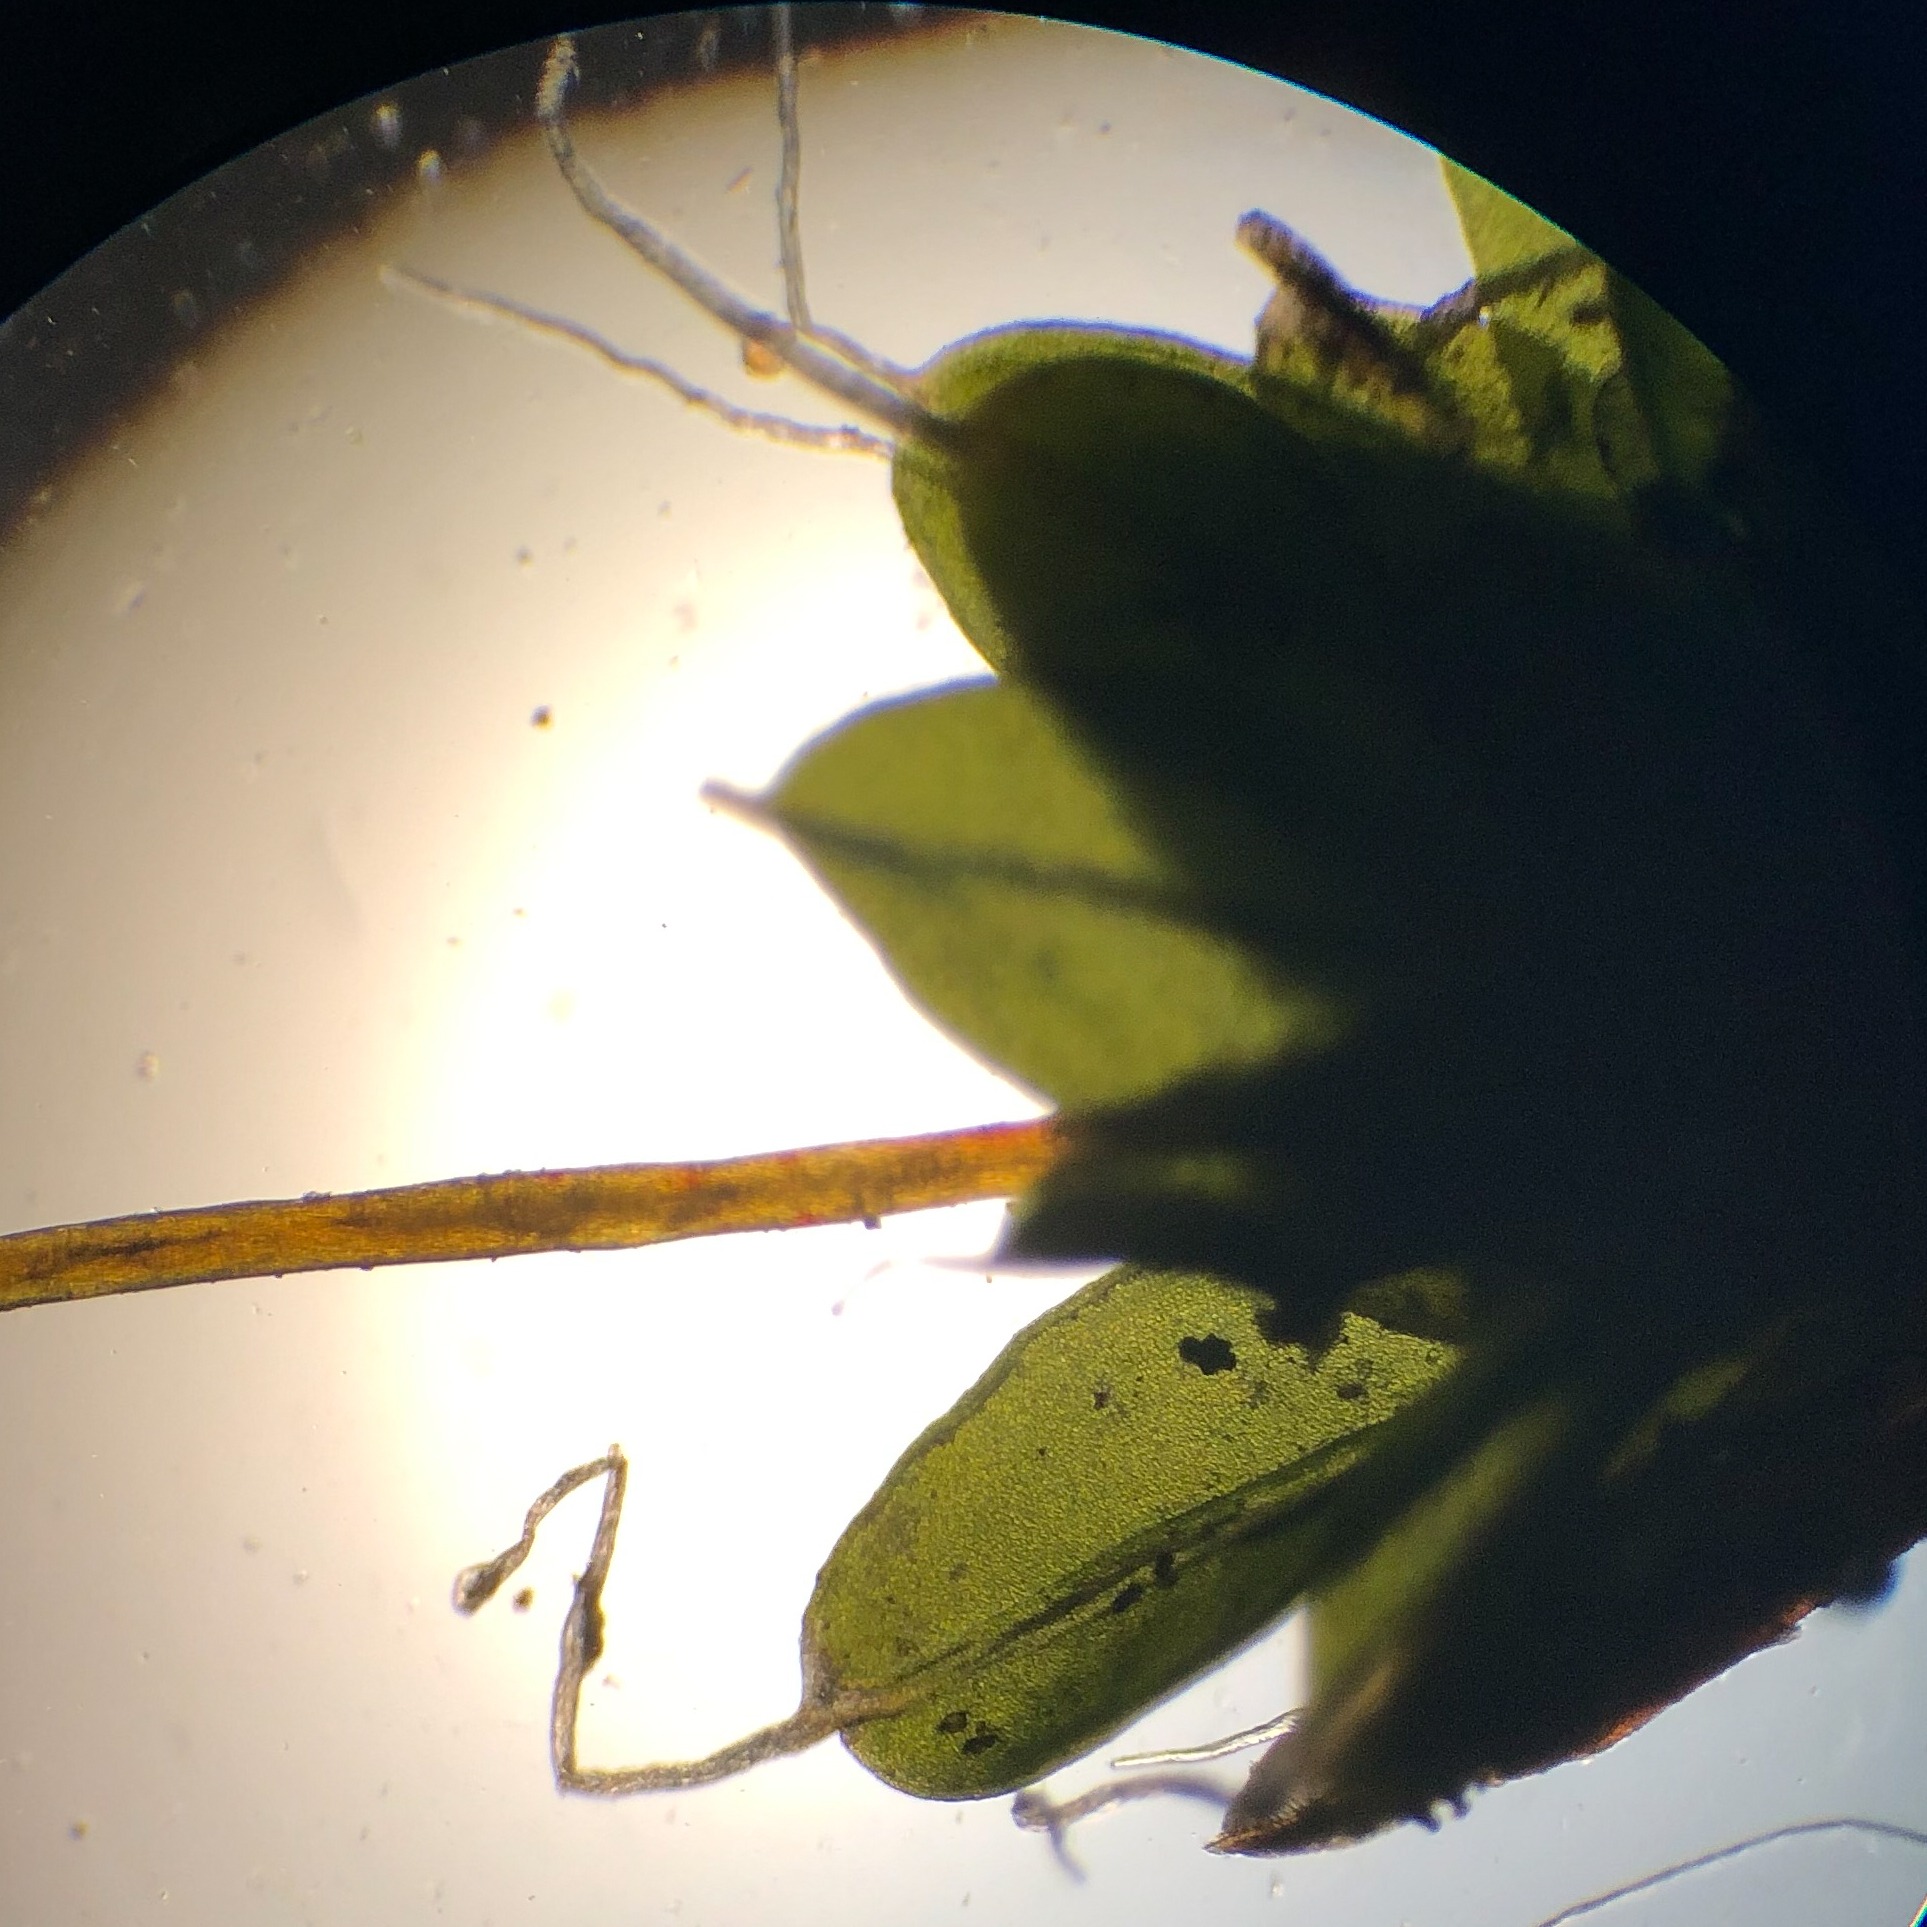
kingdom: Plantae
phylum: Bryophyta
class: Bryopsida
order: Pottiales
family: Pottiaceae
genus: Tortula
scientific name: Tortula muralis
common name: Mur-snotand
